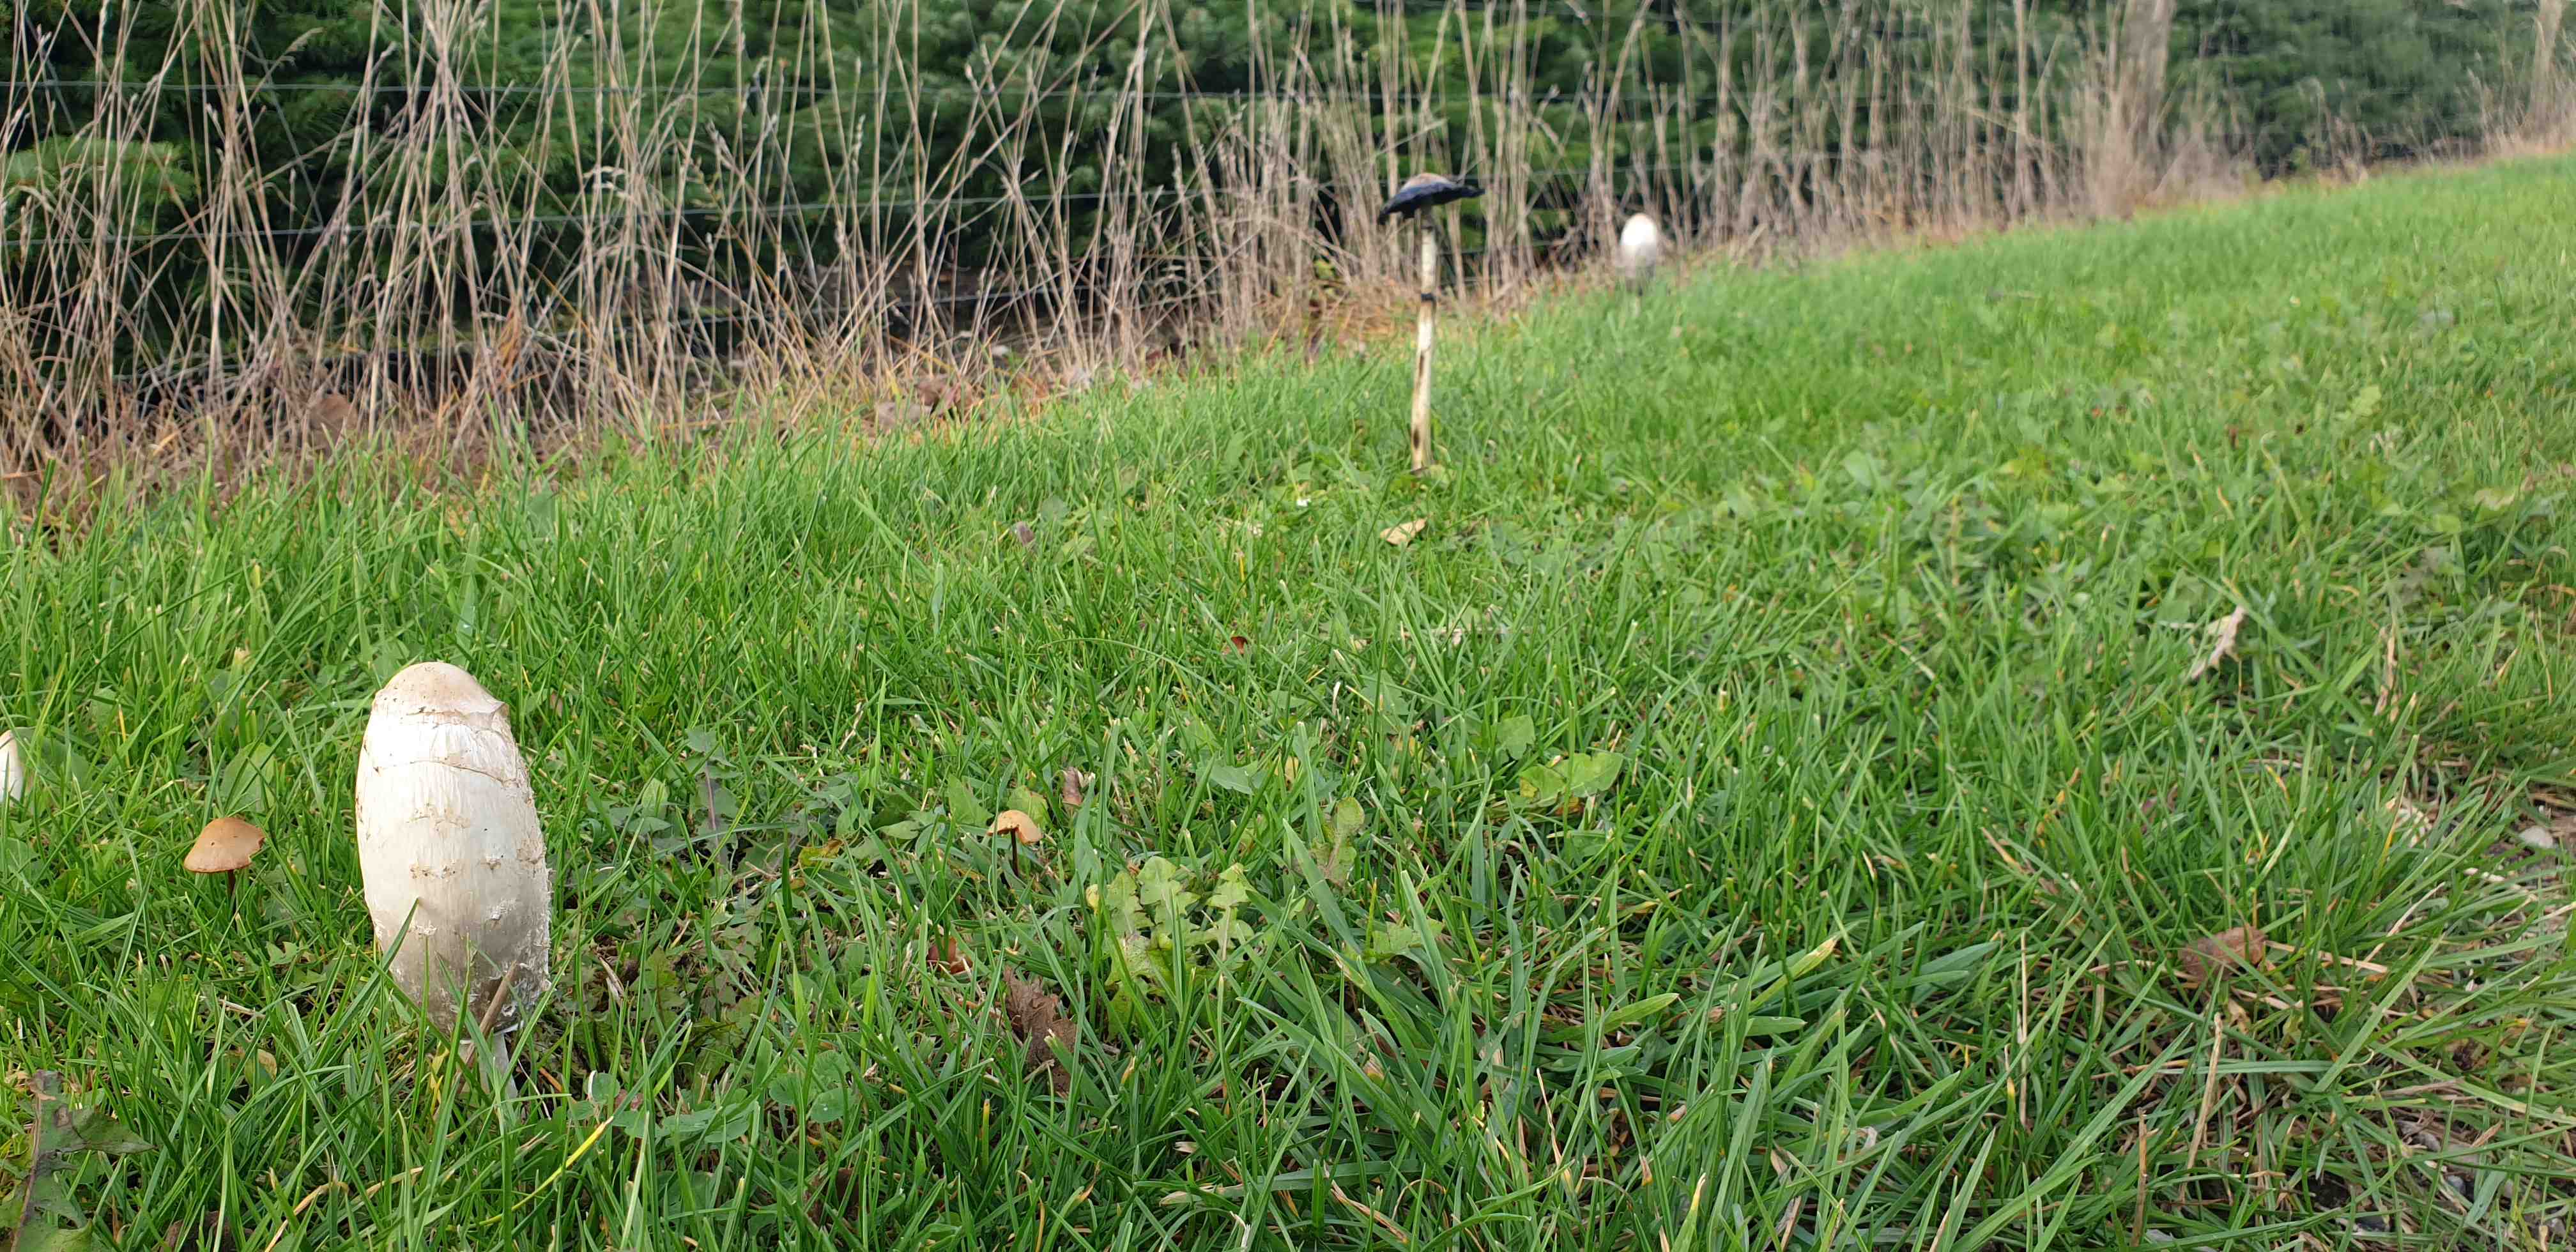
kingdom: Fungi
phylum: Basidiomycota
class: Agaricomycetes
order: Agaricales
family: Agaricaceae
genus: Coprinus
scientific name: Coprinus comatus
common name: stor parykhat
